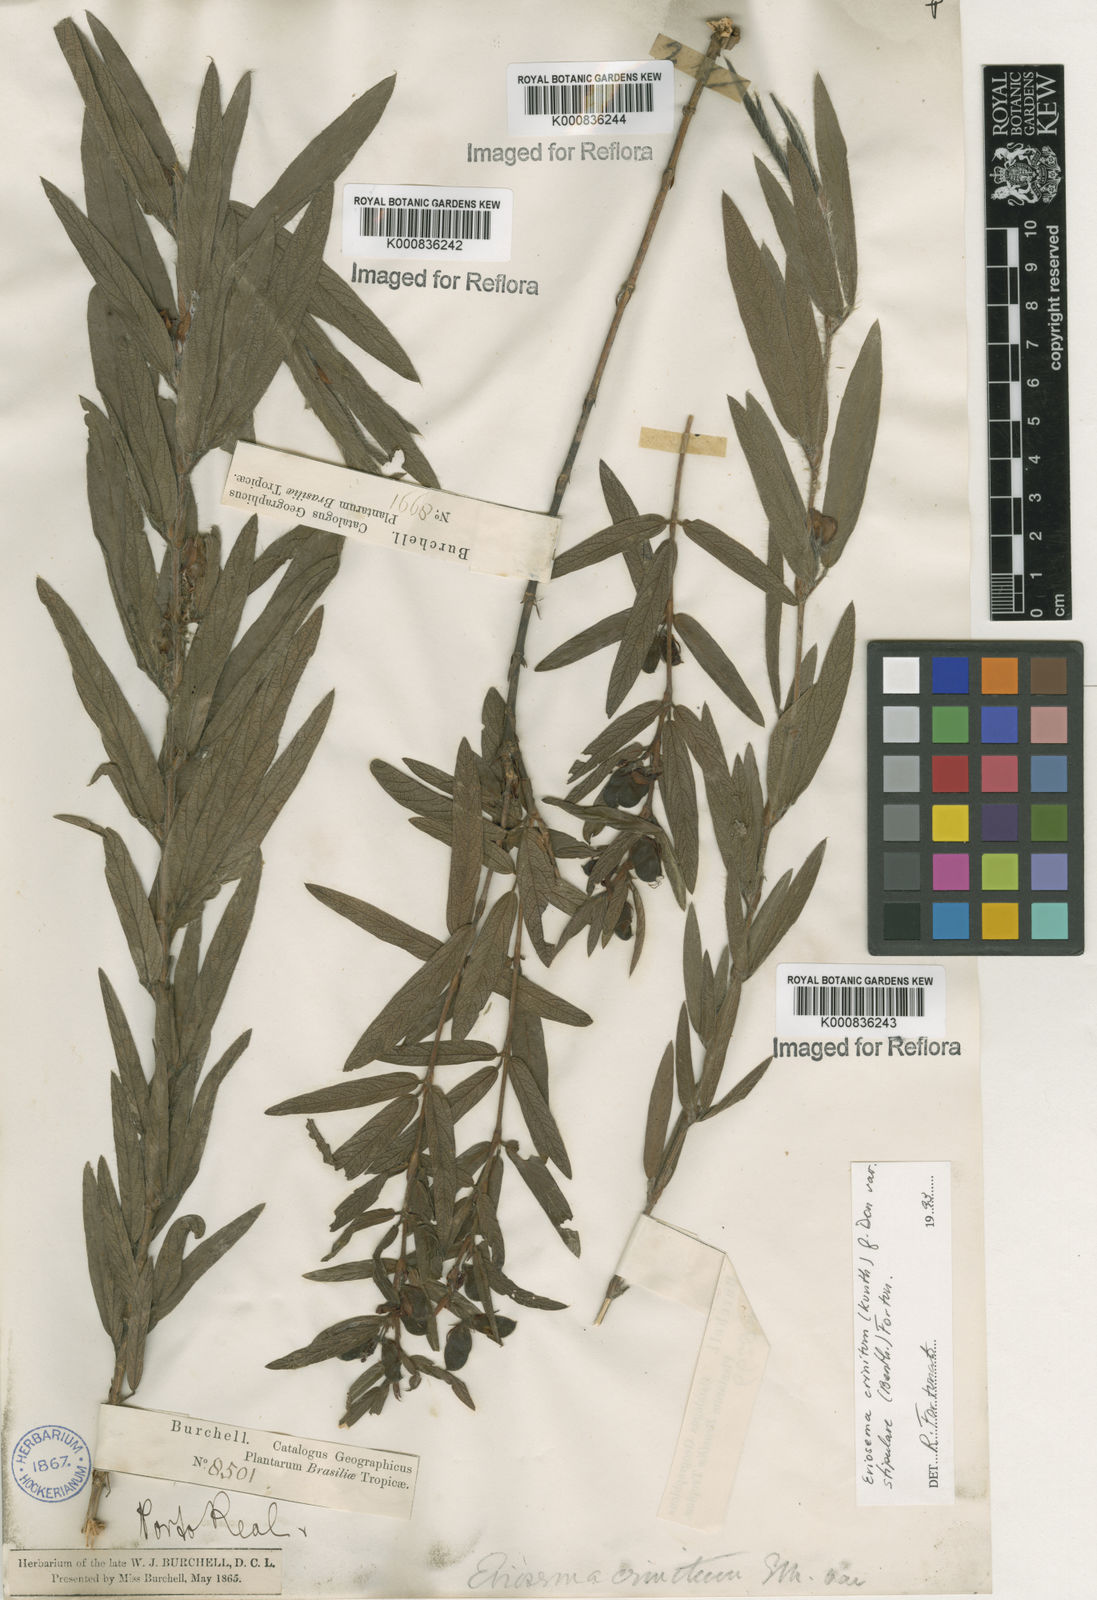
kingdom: Plantae
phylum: Tracheophyta
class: Magnoliopsida
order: Fabales
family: Fabaceae
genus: Eriosema
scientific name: Eriosema crinitum
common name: Sand pea
